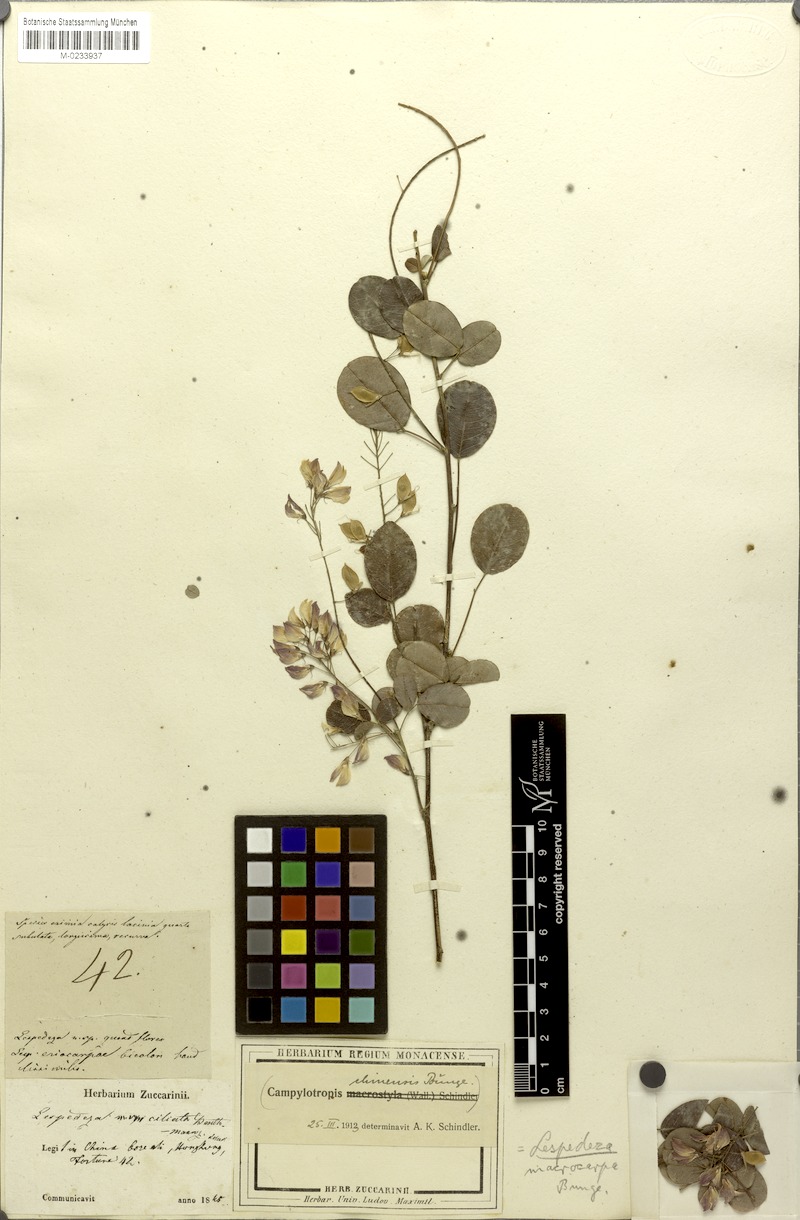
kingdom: Plantae
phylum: Tracheophyta
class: Magnoliopsida
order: Fabales
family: Fabaceae
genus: Campylotropis
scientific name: Campylotropis macrocarpa
